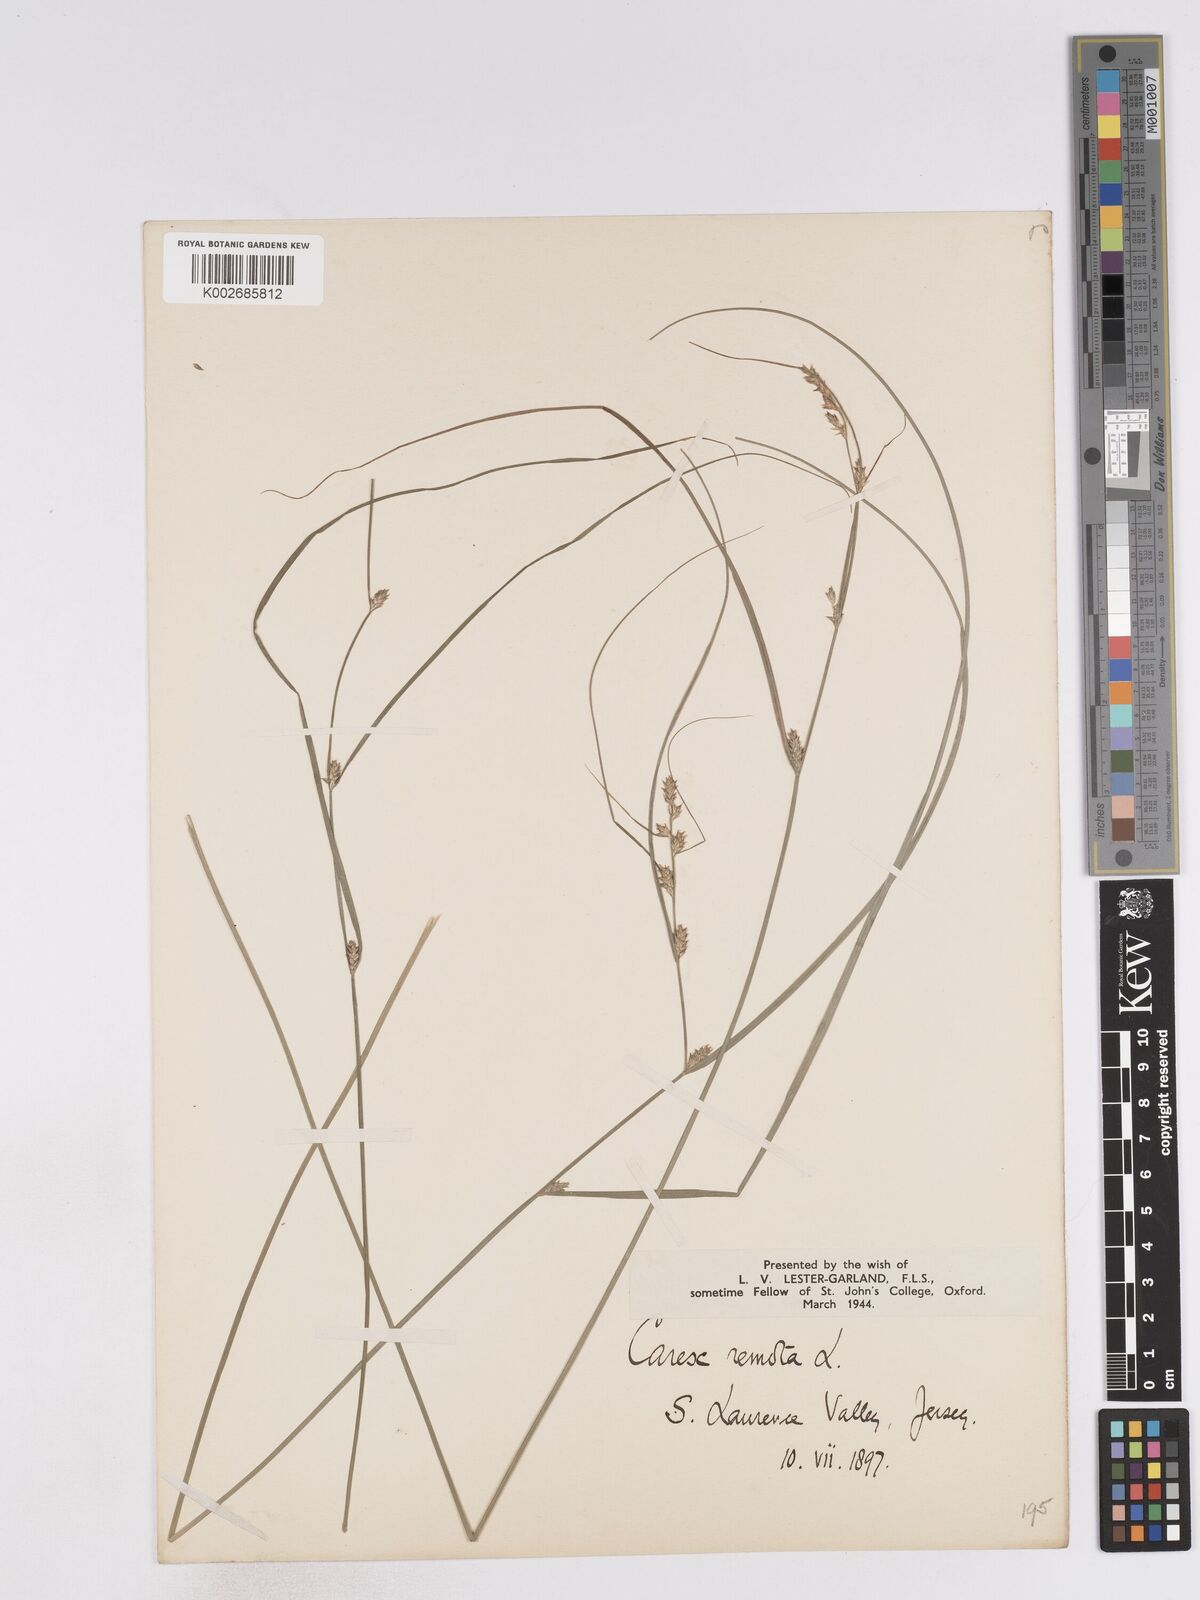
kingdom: Plantae
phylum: Tracheophyta
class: Liliopsida
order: Poales
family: Cyperaceae
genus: Carex
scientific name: Carex remota
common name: Remote sedge
